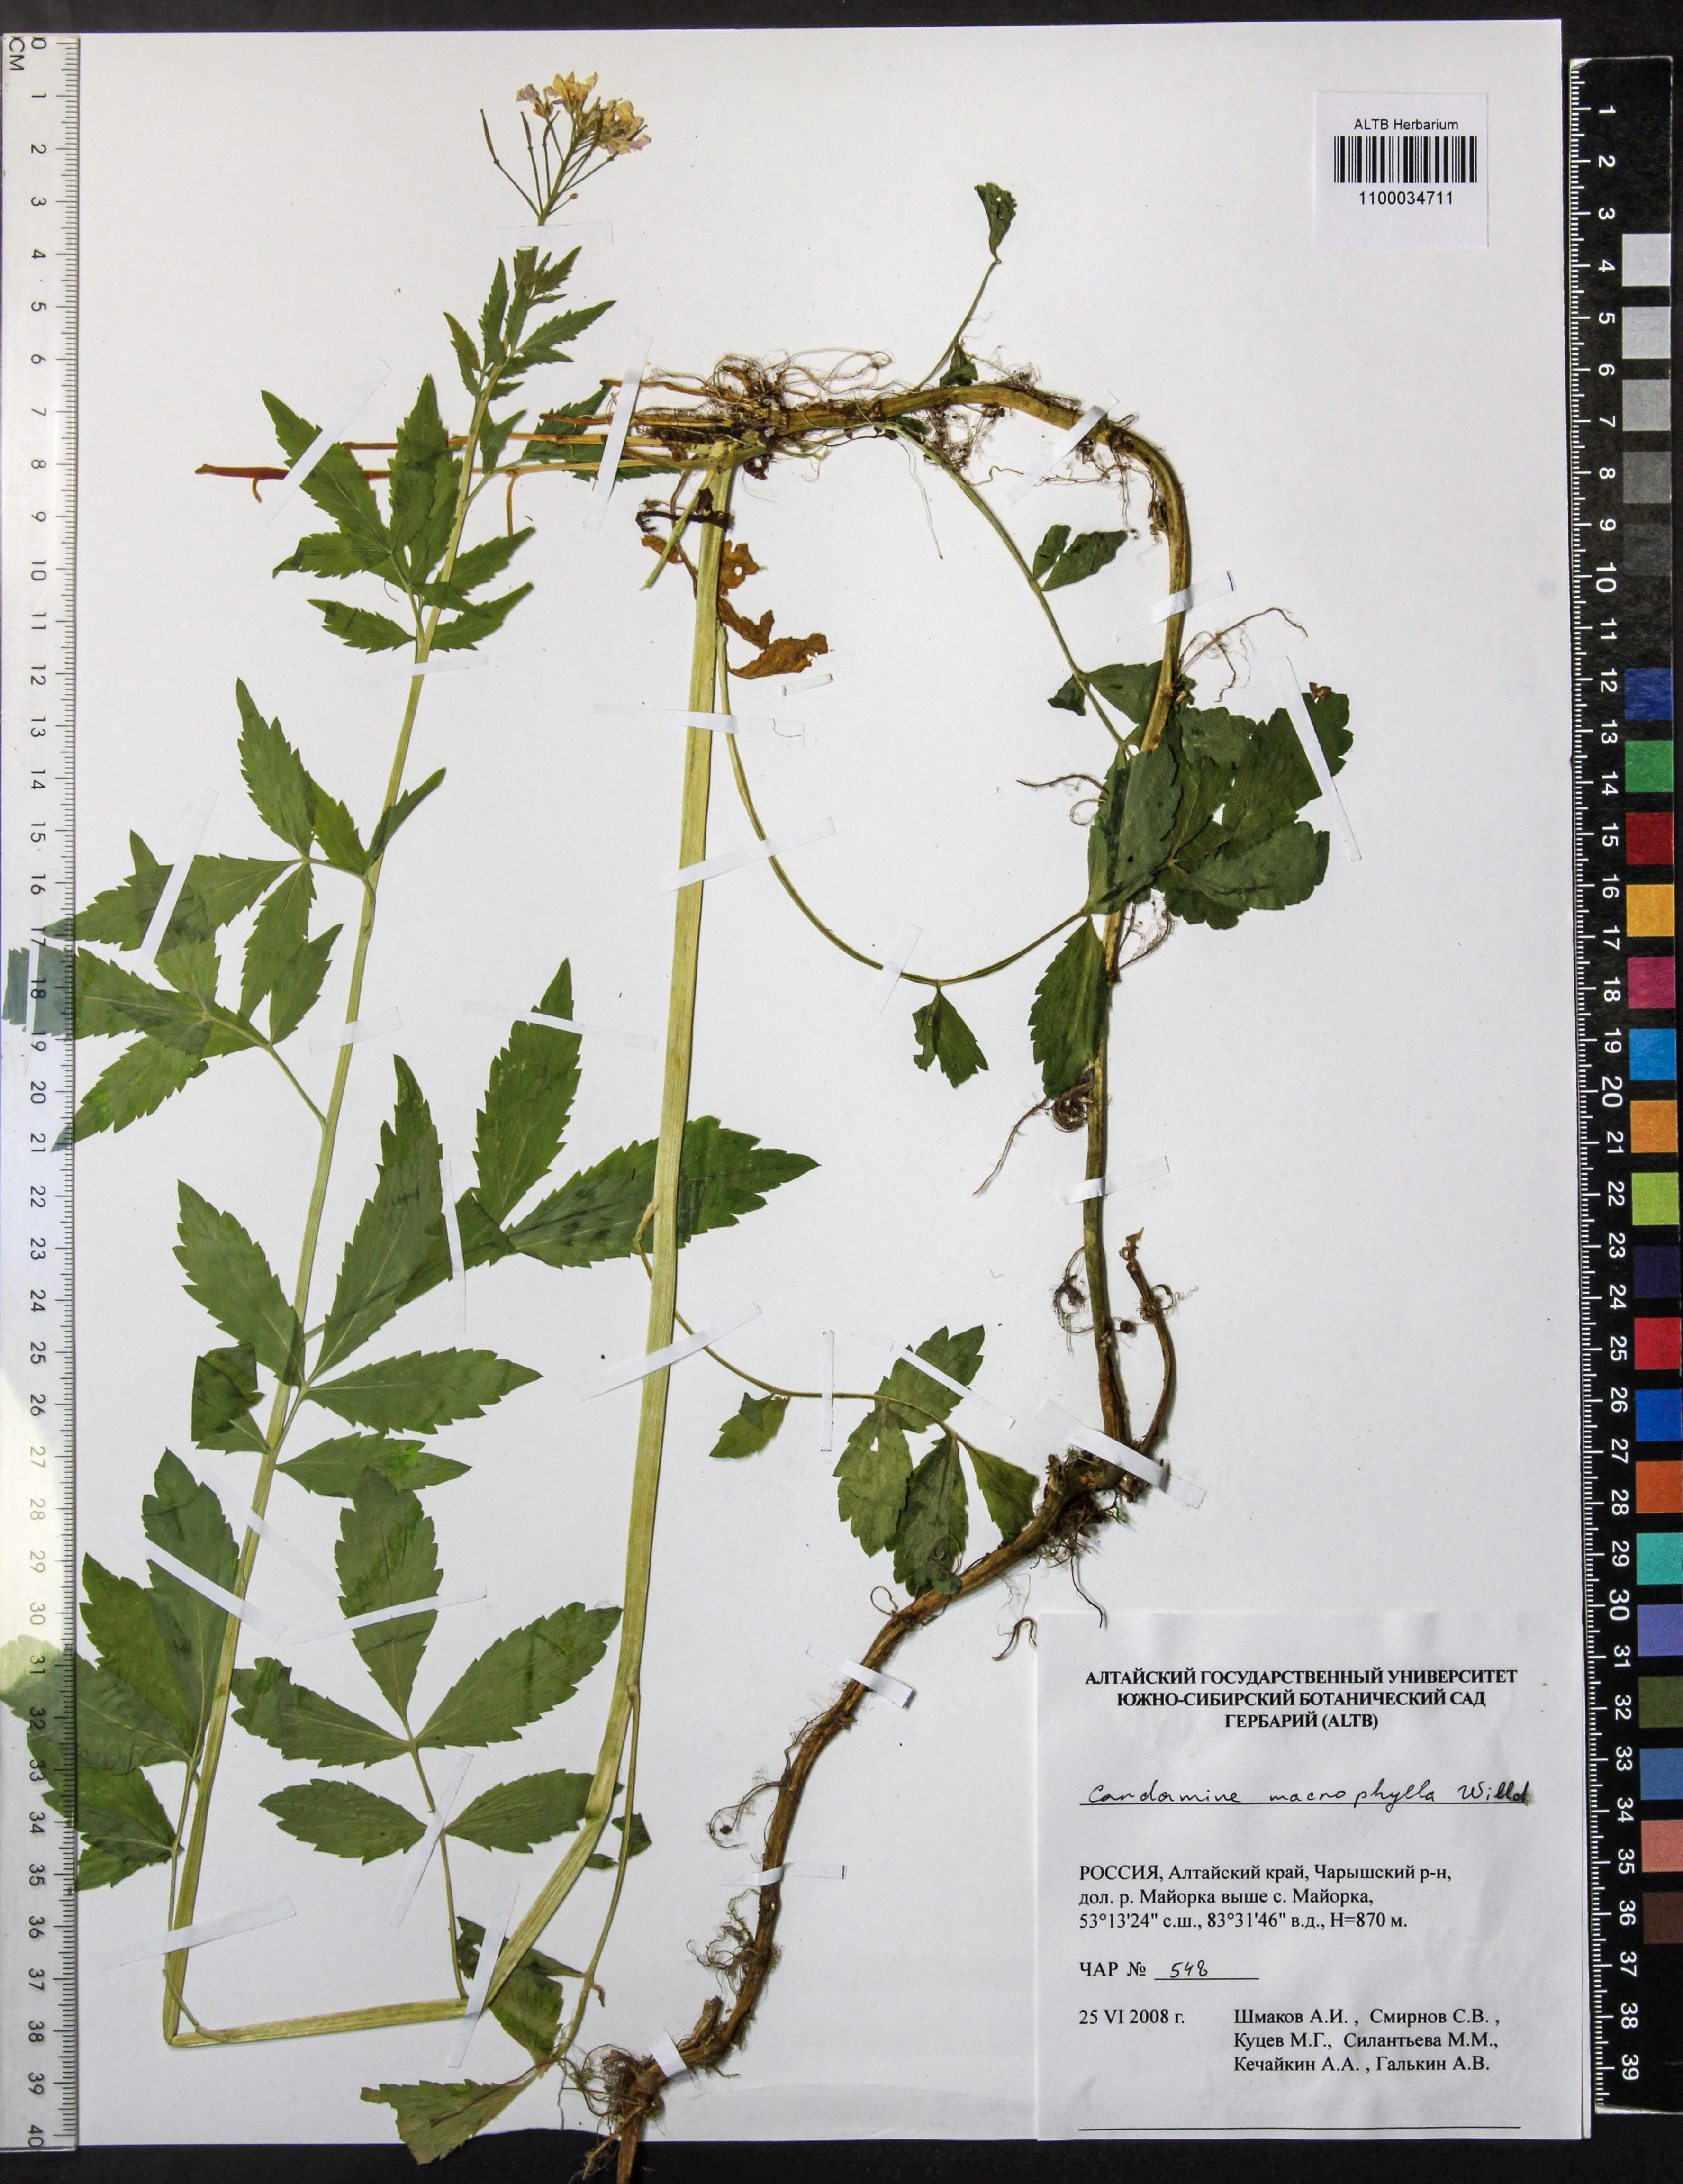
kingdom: Plantae
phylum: Tracheophyta
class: Magnoliopsida
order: Brassicales
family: Brassicaceae
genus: Cardamine
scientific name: Cardamine macrophylla
